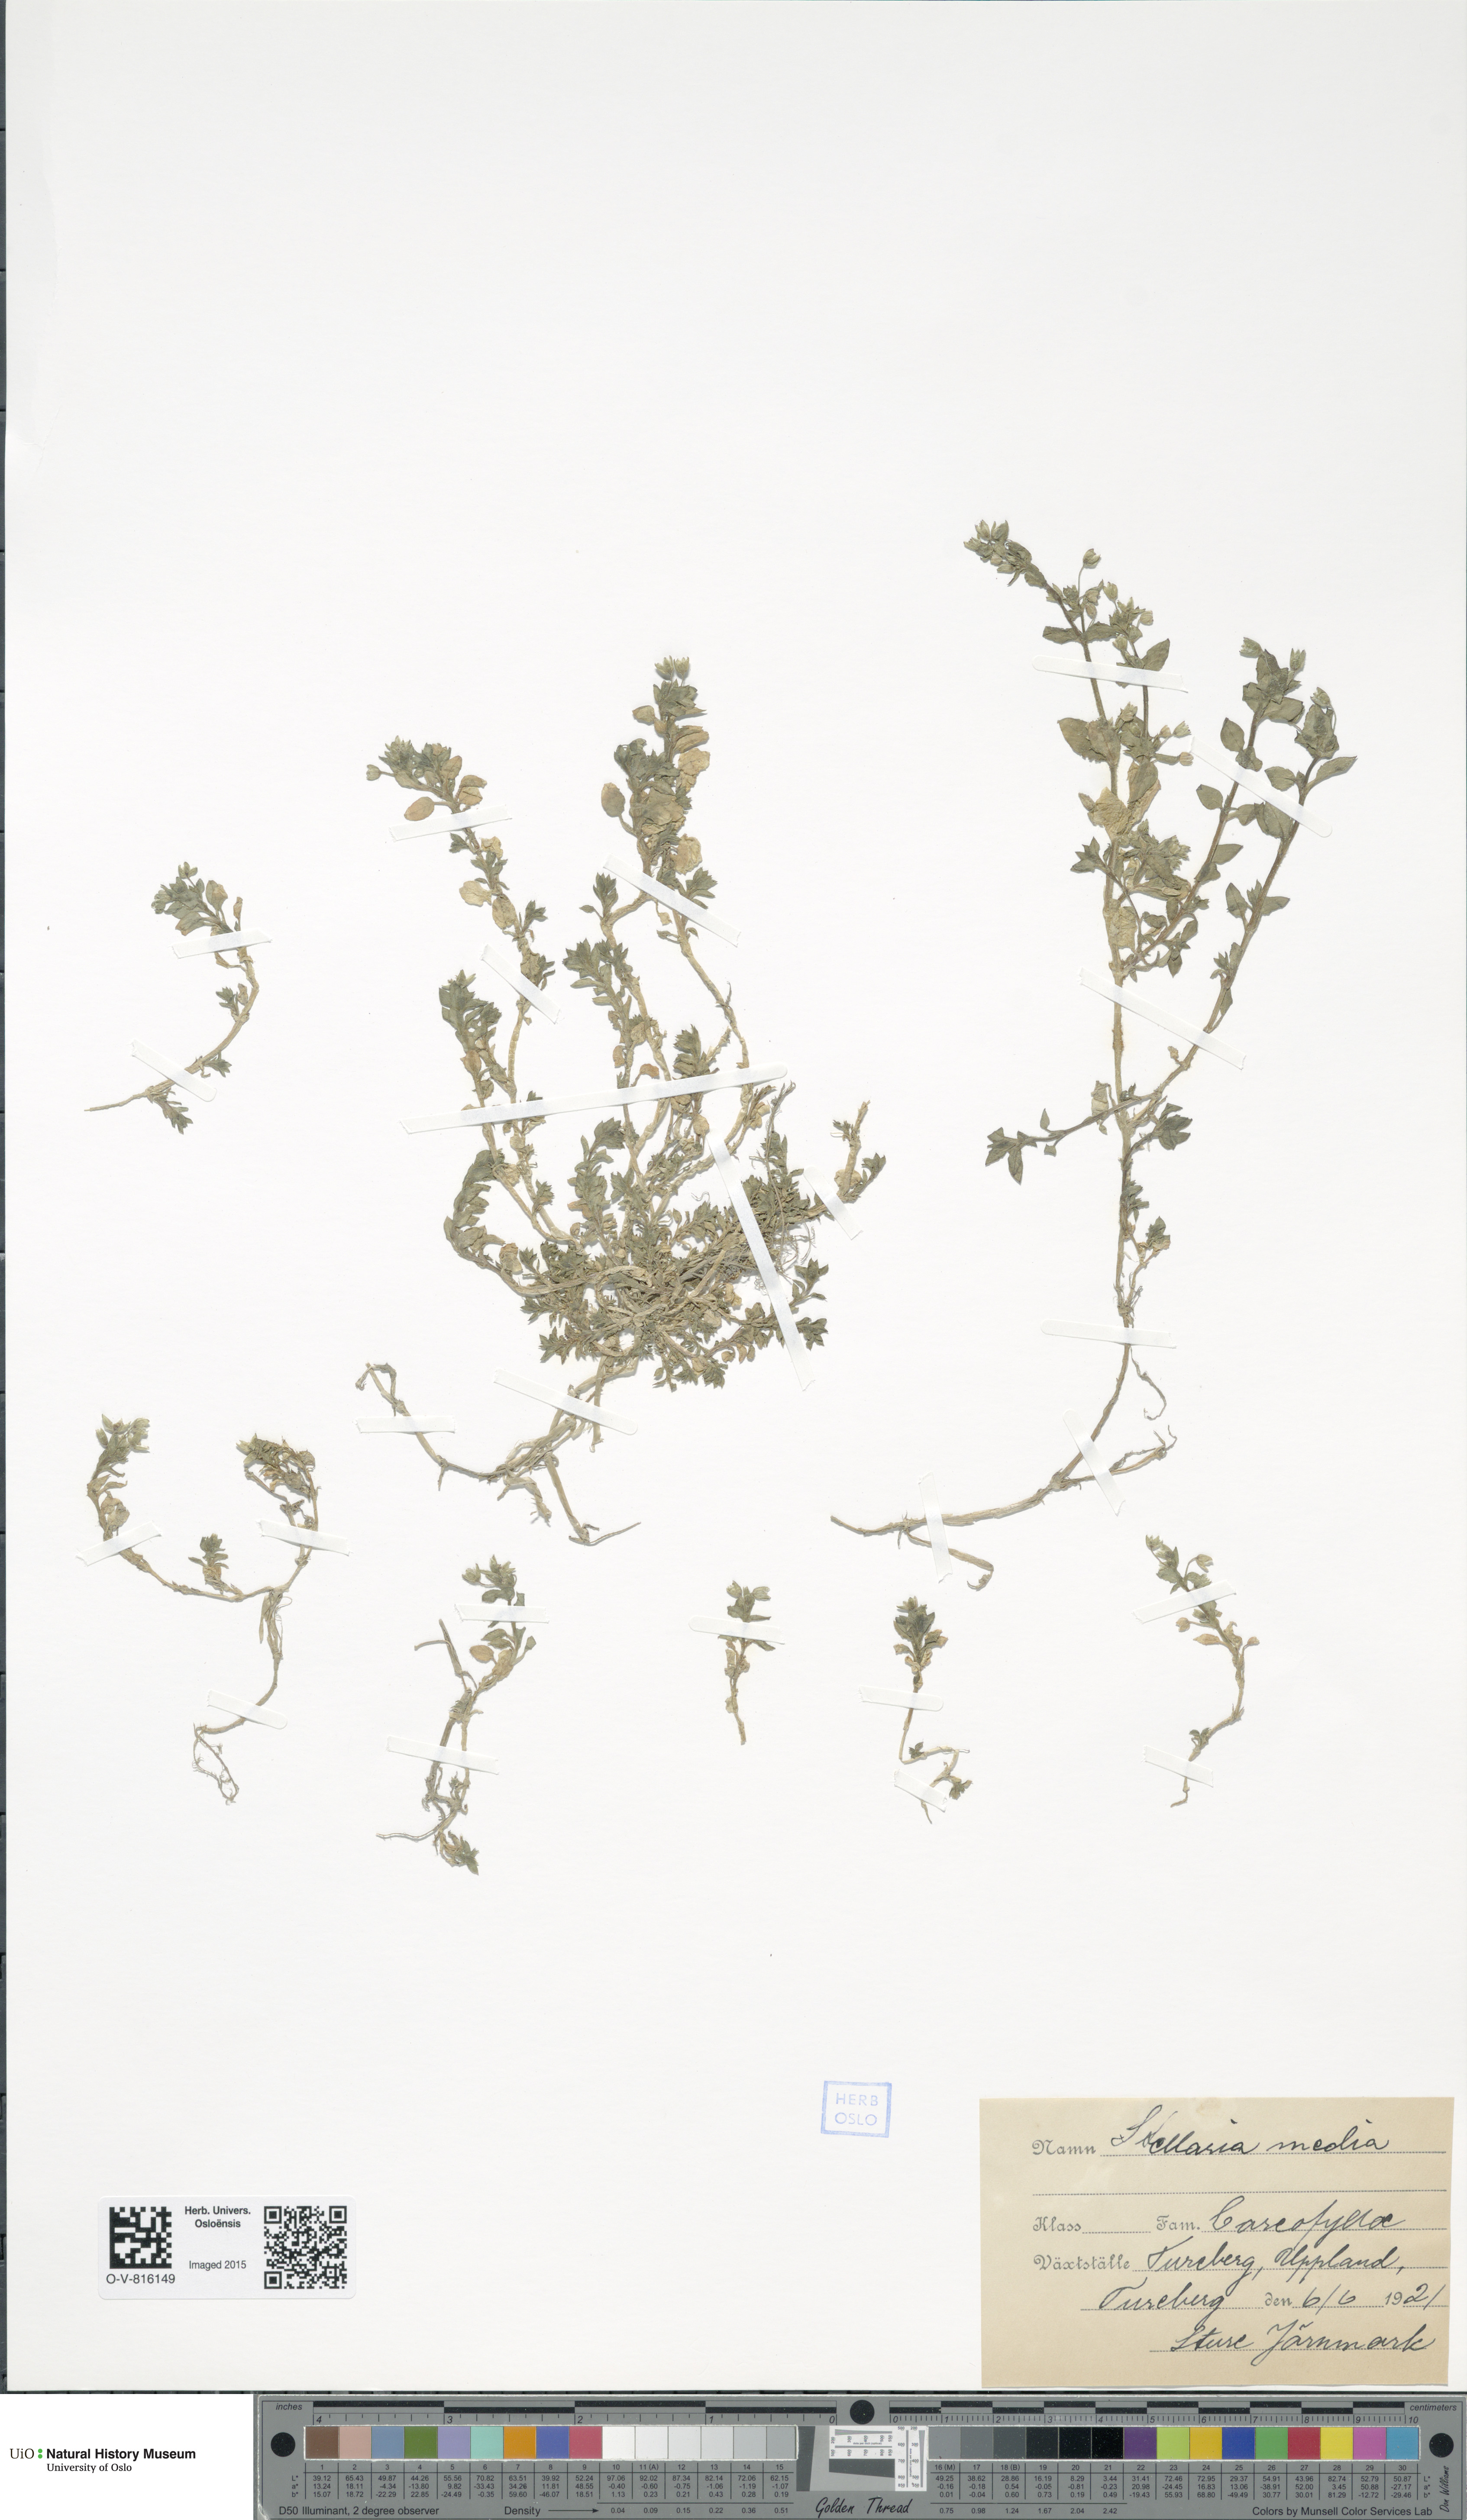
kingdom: Plantae
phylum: Tracheophyta
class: Magnoliopsida
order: Caryophyllales
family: Caryophyllaceae
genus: Stellaria
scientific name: Stellaria media
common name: Common chickweed
